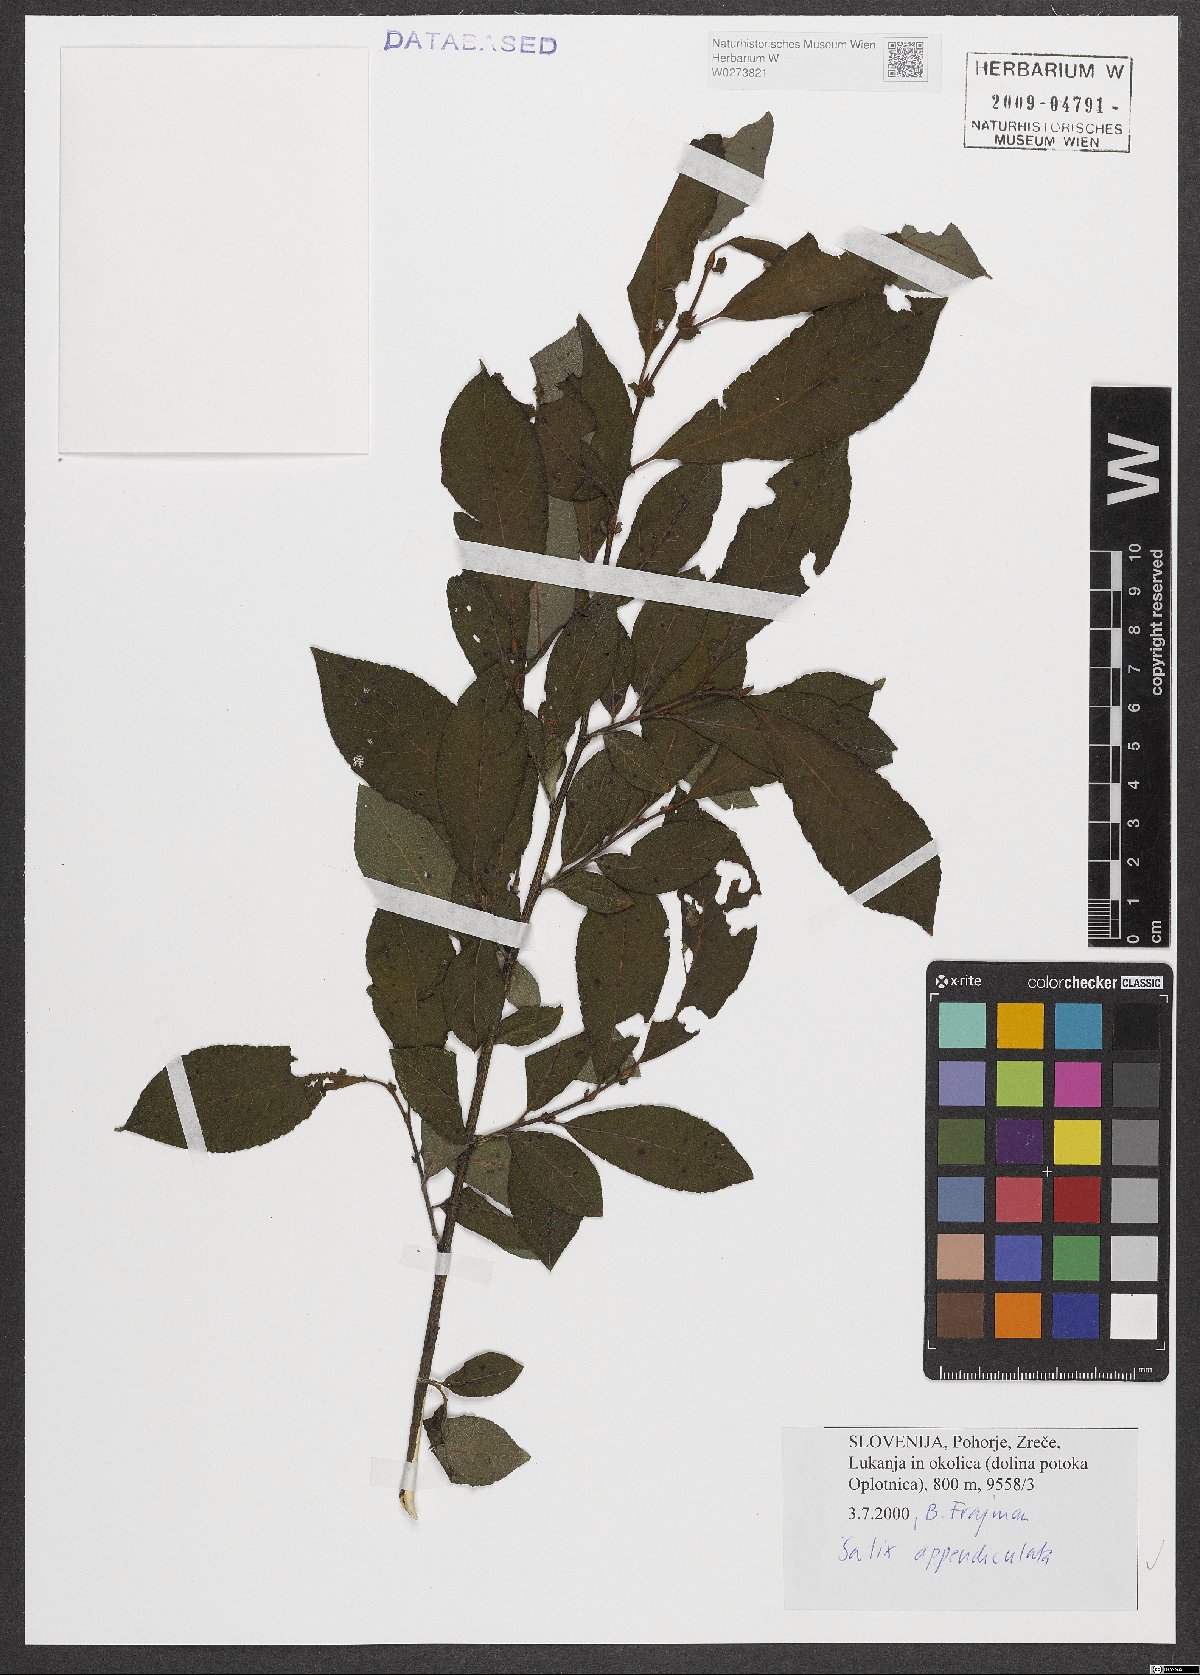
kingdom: Plantae
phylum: Tracheophyta
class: Magnoliopsida
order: Malpighiales
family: Salicaceae
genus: Salix
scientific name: Salix appendiculata
